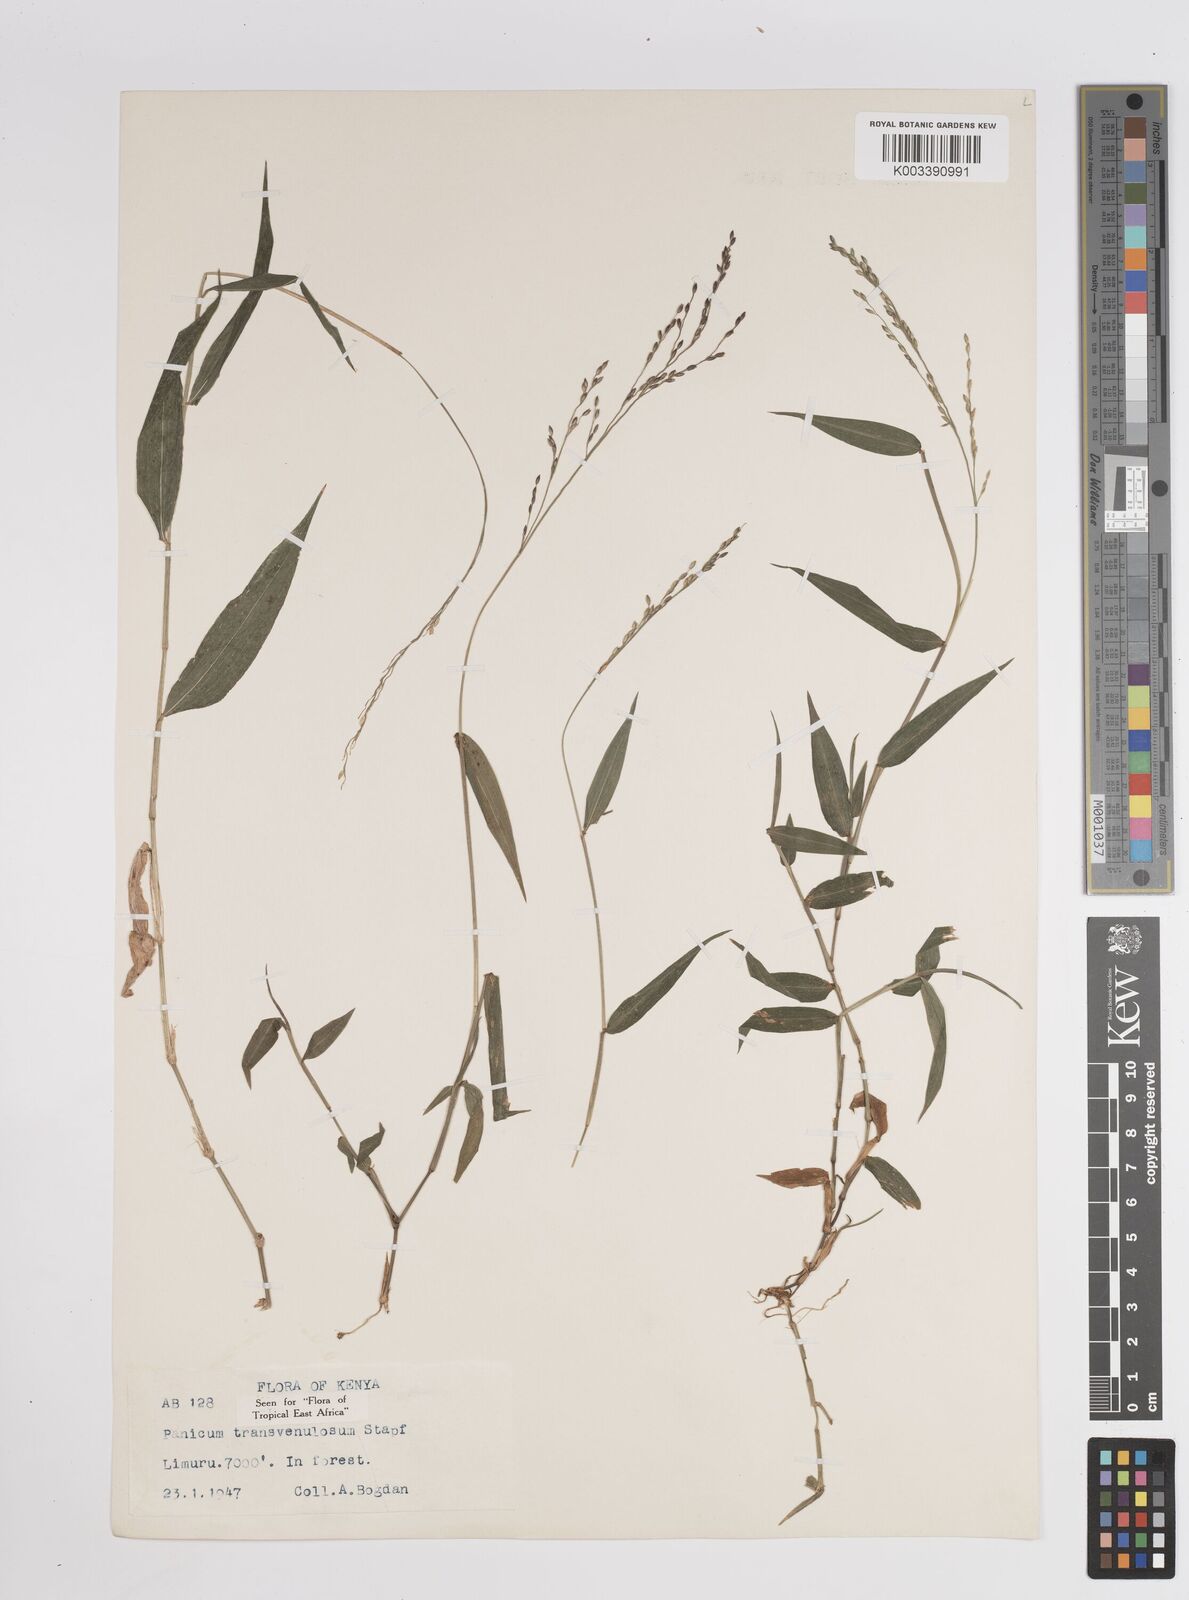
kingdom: Plantae
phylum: Tracheophyta
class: Liliopsida
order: Poales
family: Poaceae
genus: Panicum
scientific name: Panicum monticola
